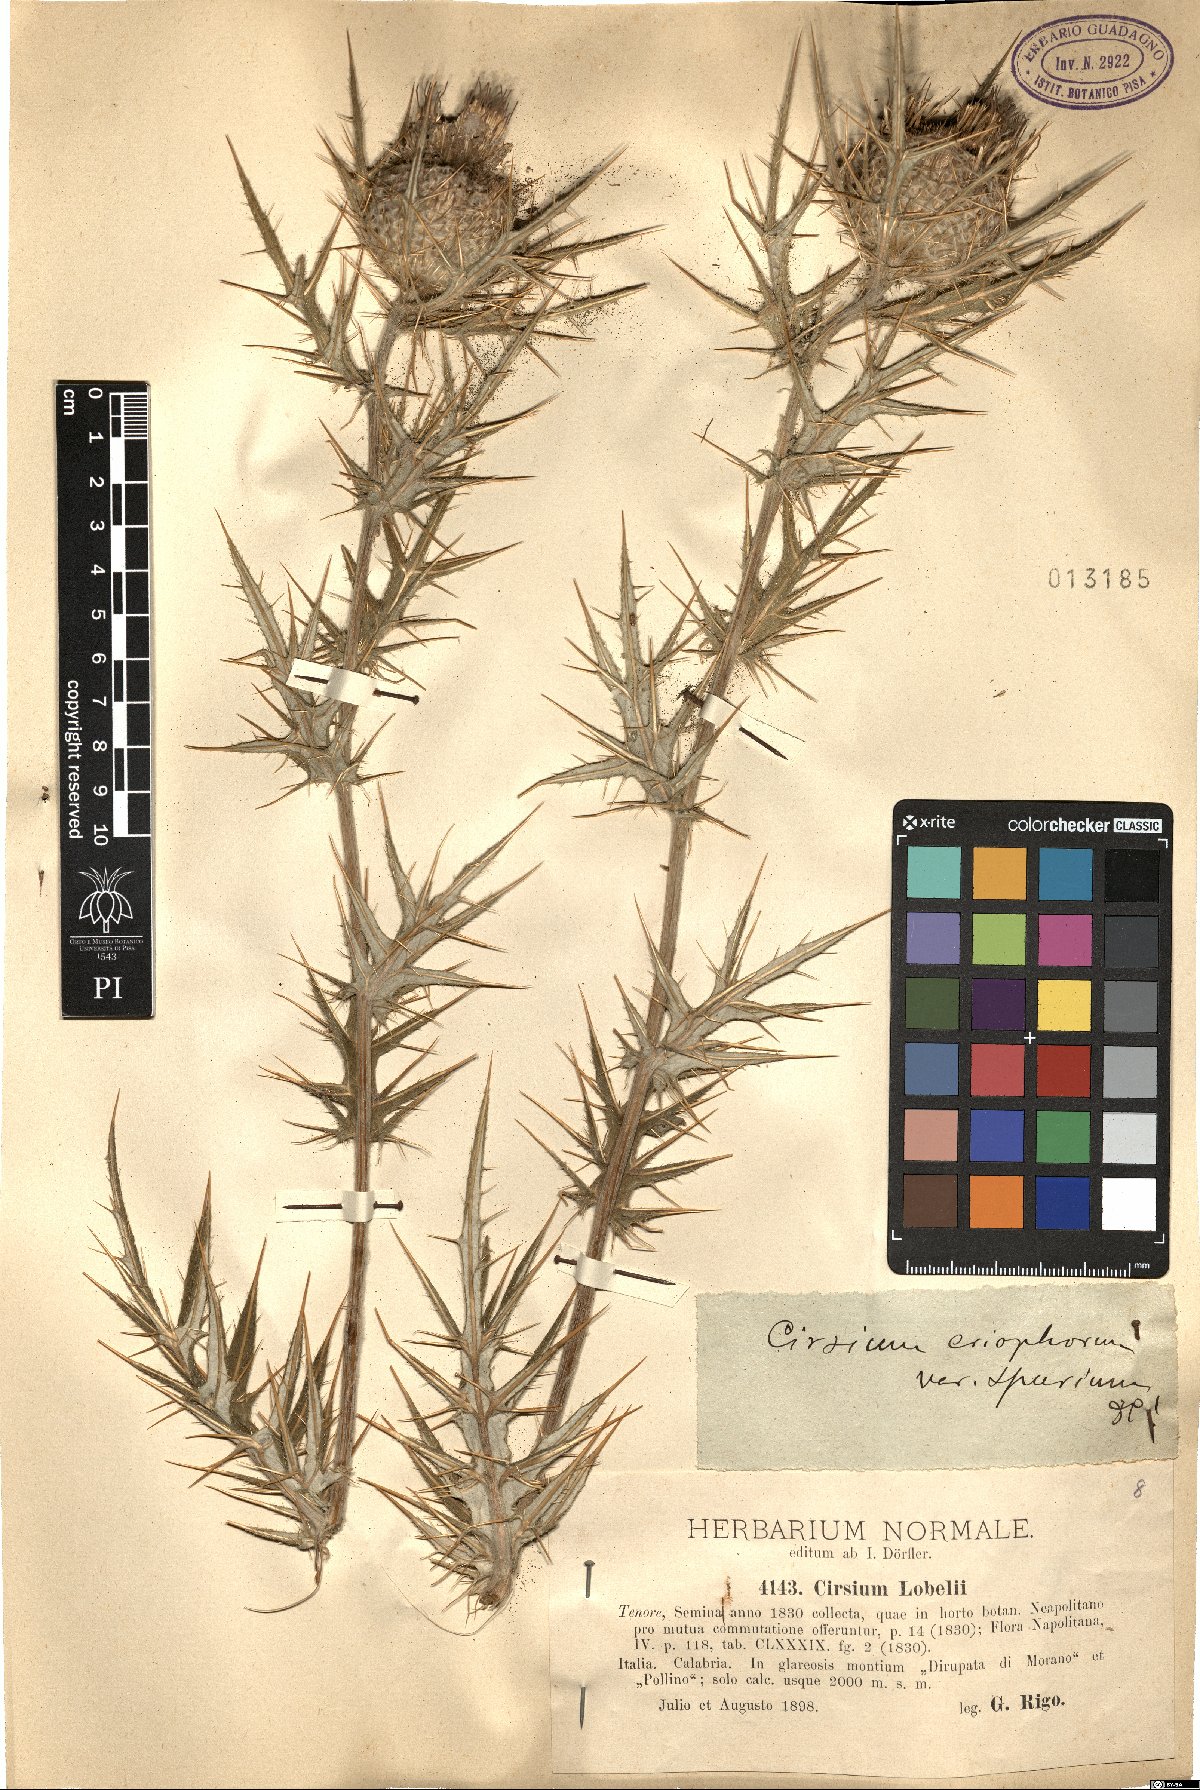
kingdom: Plantae
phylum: Tracheophyta
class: Magnoliopsida
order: Asterales
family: Asteraceae
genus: Lophiolepis
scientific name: Lophiolepis lobelii
